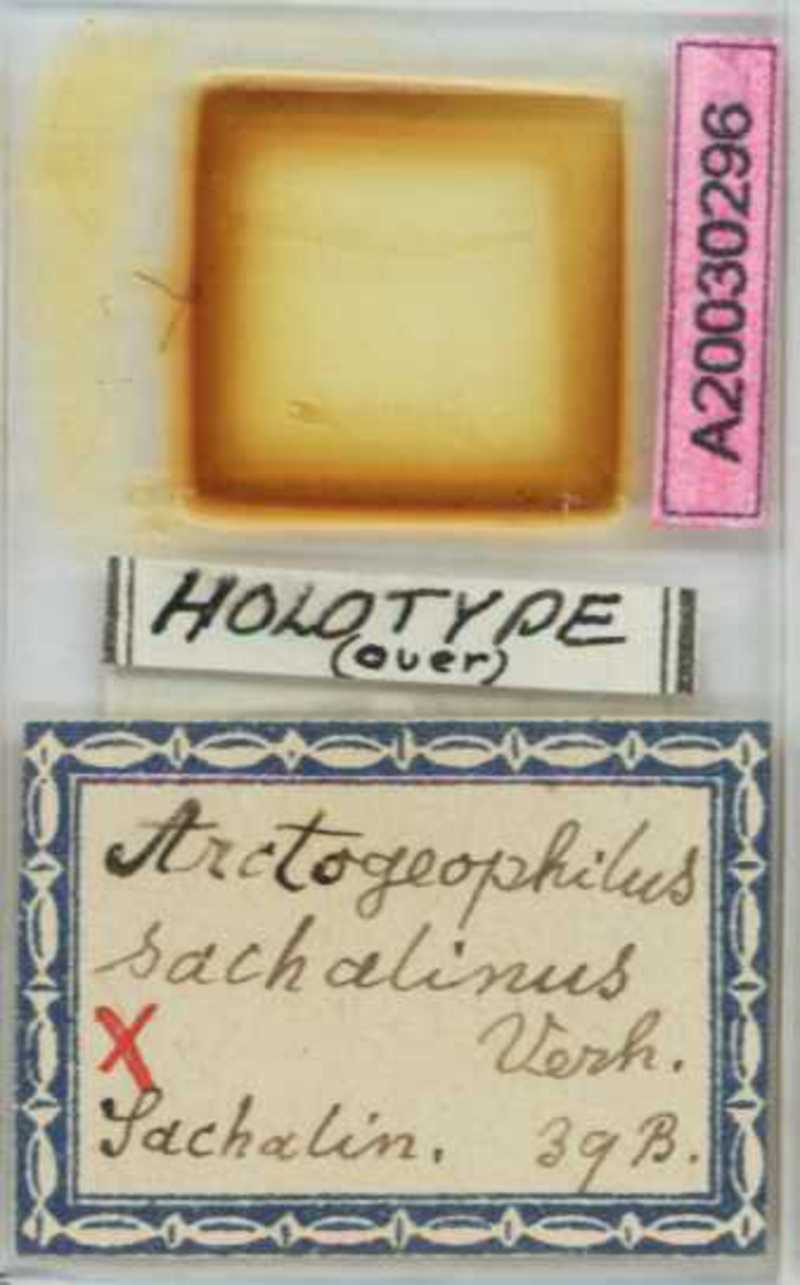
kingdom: Animalia
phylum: Arthropoda
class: Chilopoda
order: Geophilomorpha
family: Geophilidae
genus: Arctogeophilus
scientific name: Arctogeophilus sachalinus
